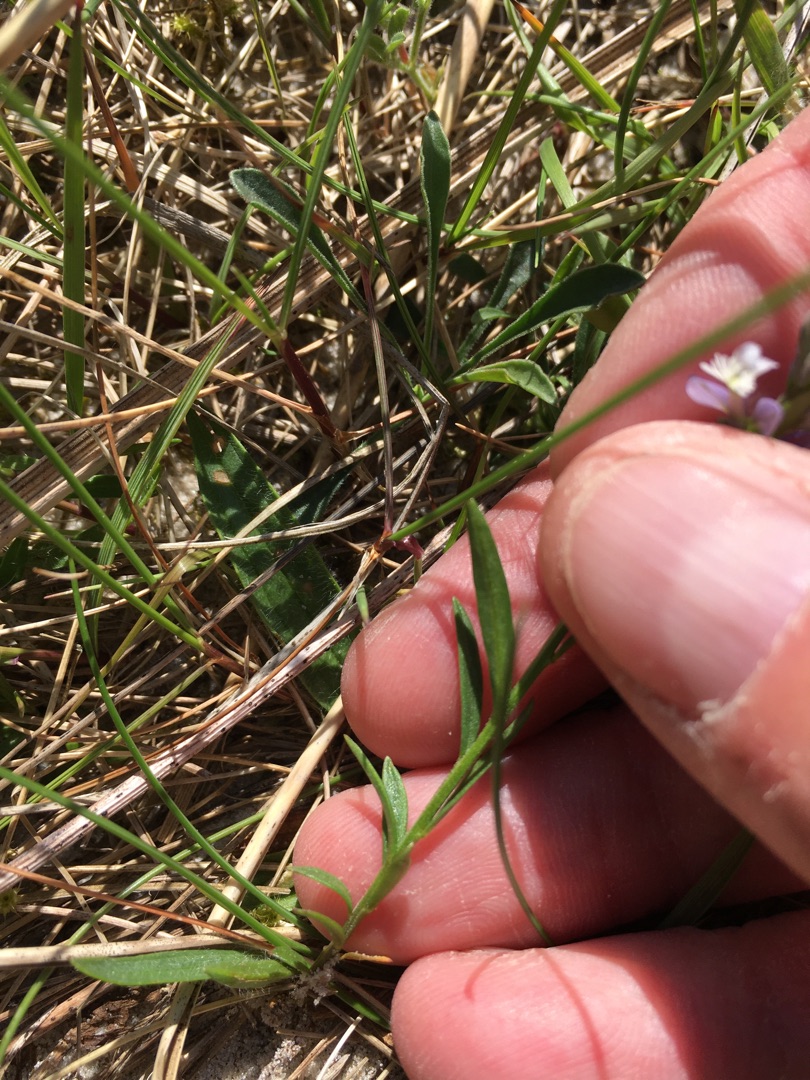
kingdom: Plantae
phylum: Tracheophyta
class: Magnoliopsida
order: Fabales
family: Polygalaceae
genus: Polygala
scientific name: Polygala vulgaris
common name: Almindelig mælkeurt
